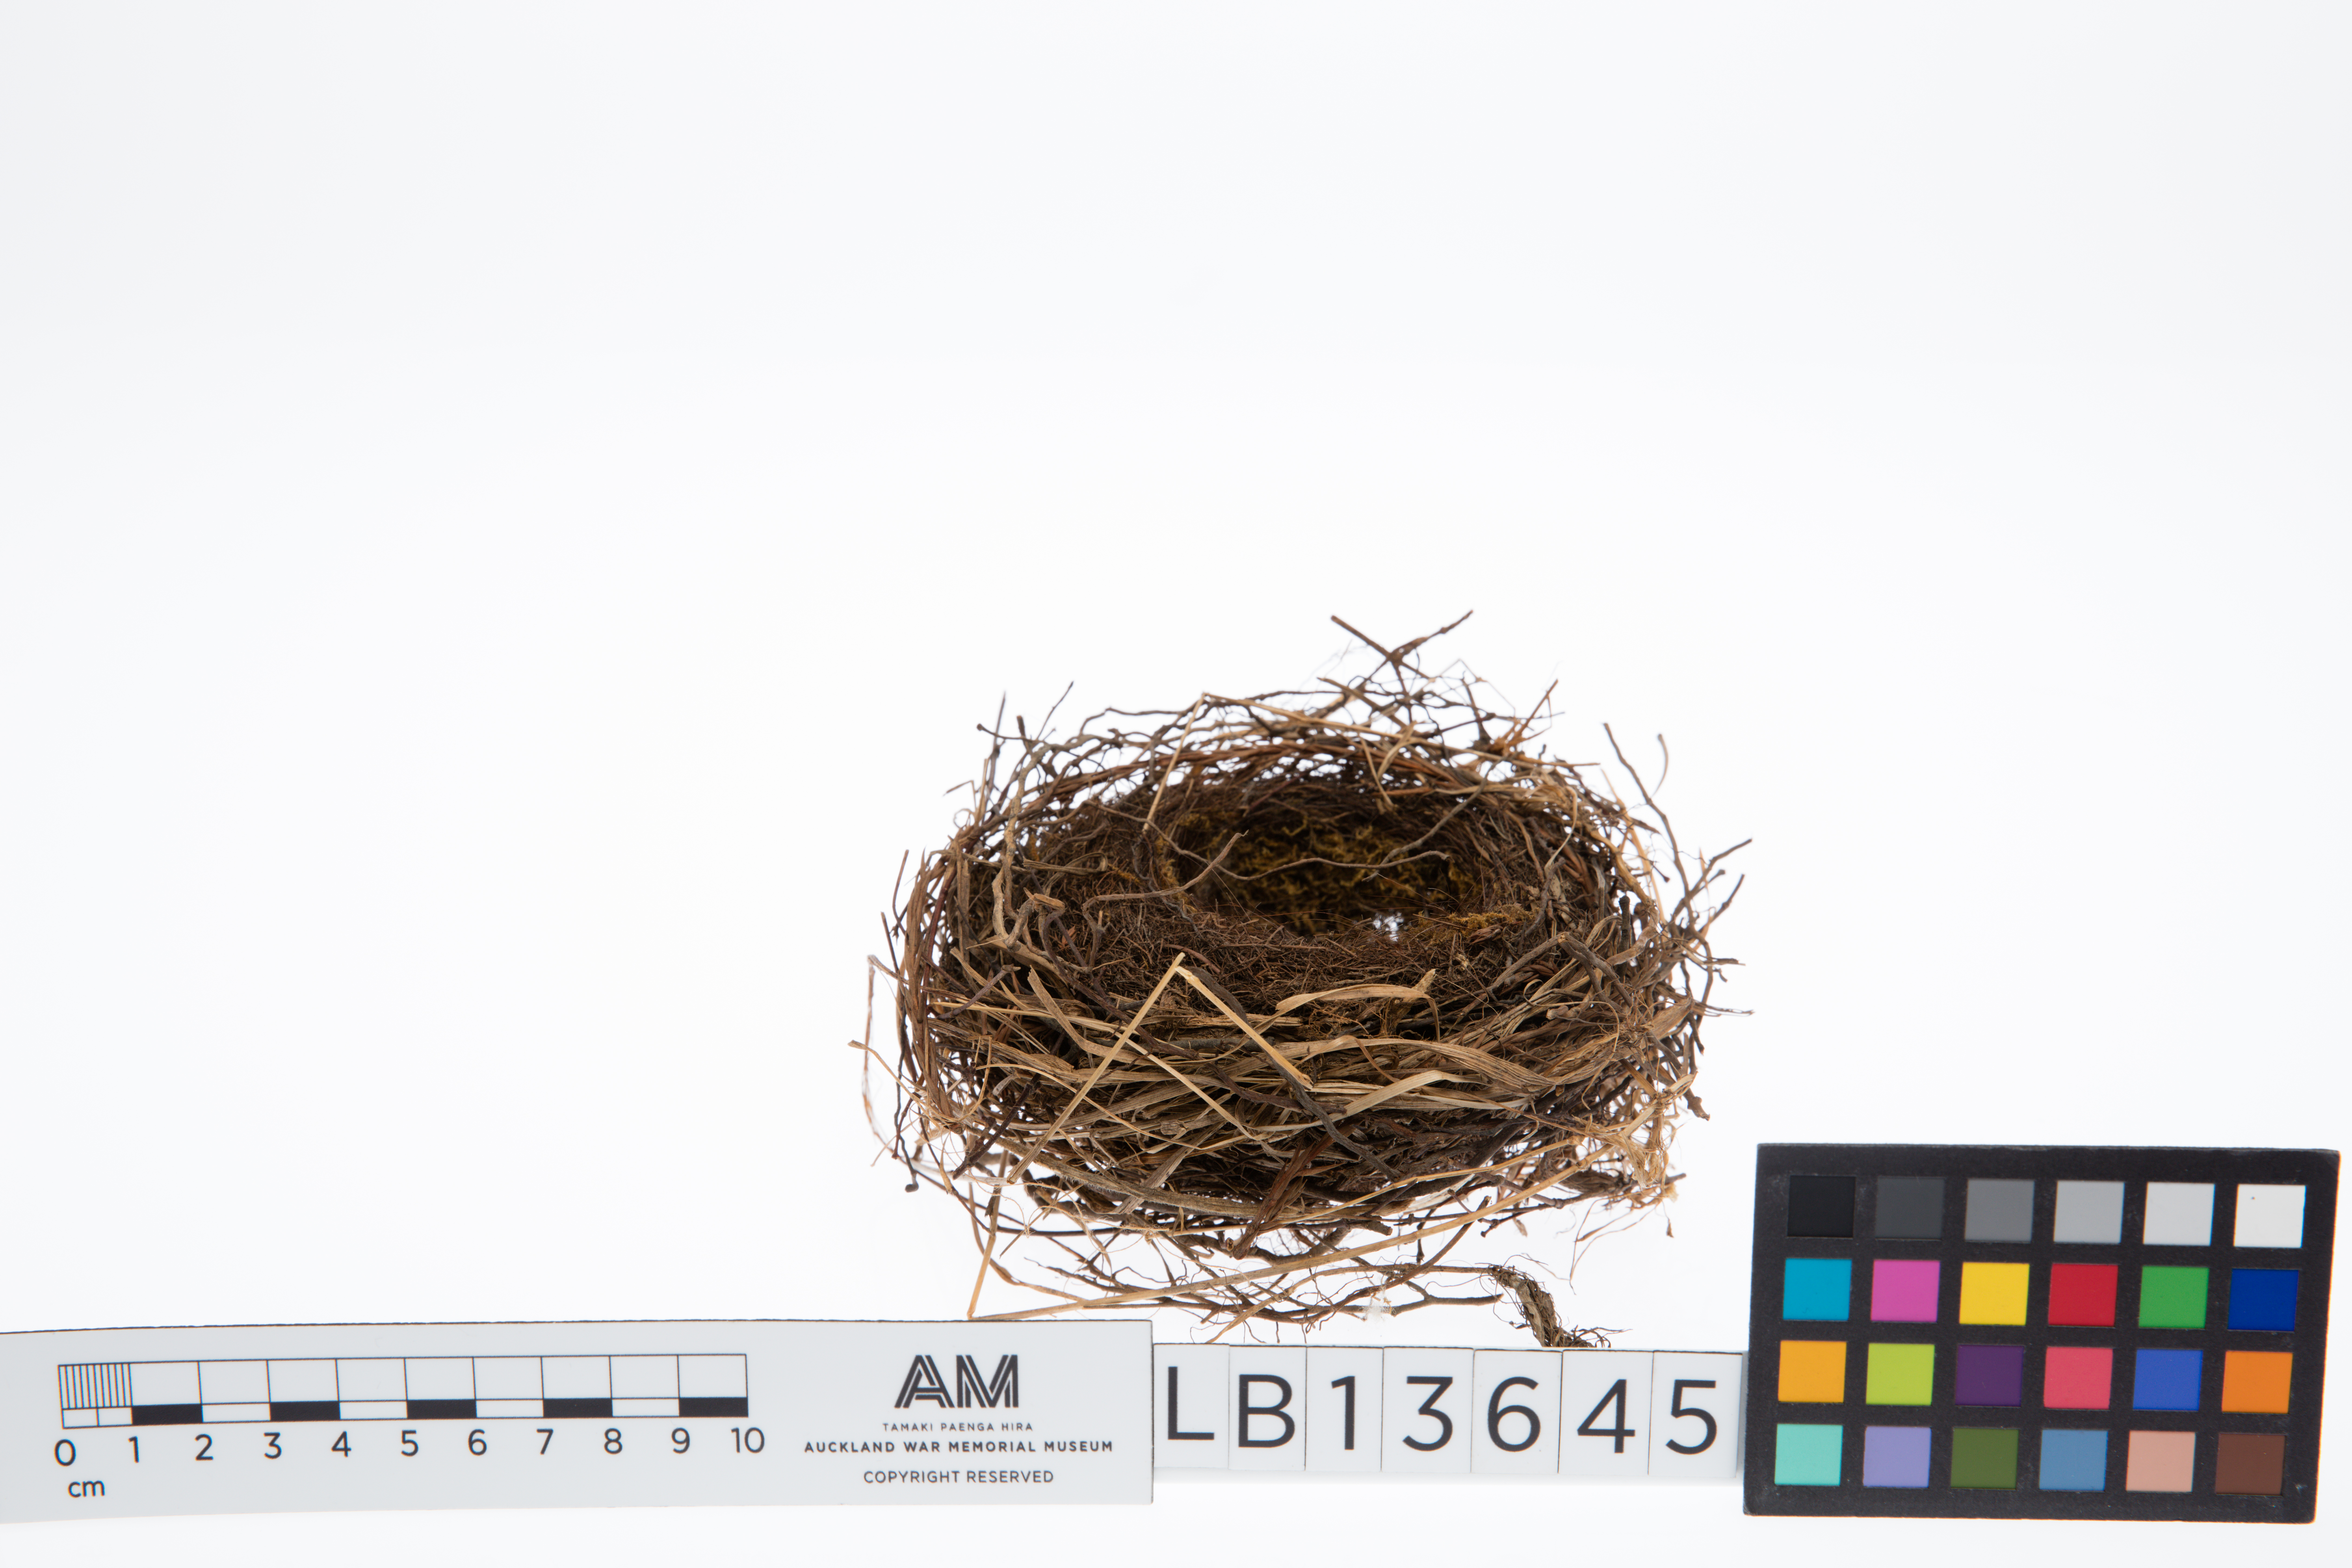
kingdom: Animalia
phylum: Chordata
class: Aves
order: Passeriformes
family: Prunellidae
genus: Prunella
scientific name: Prunella modularis
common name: Dunnock
